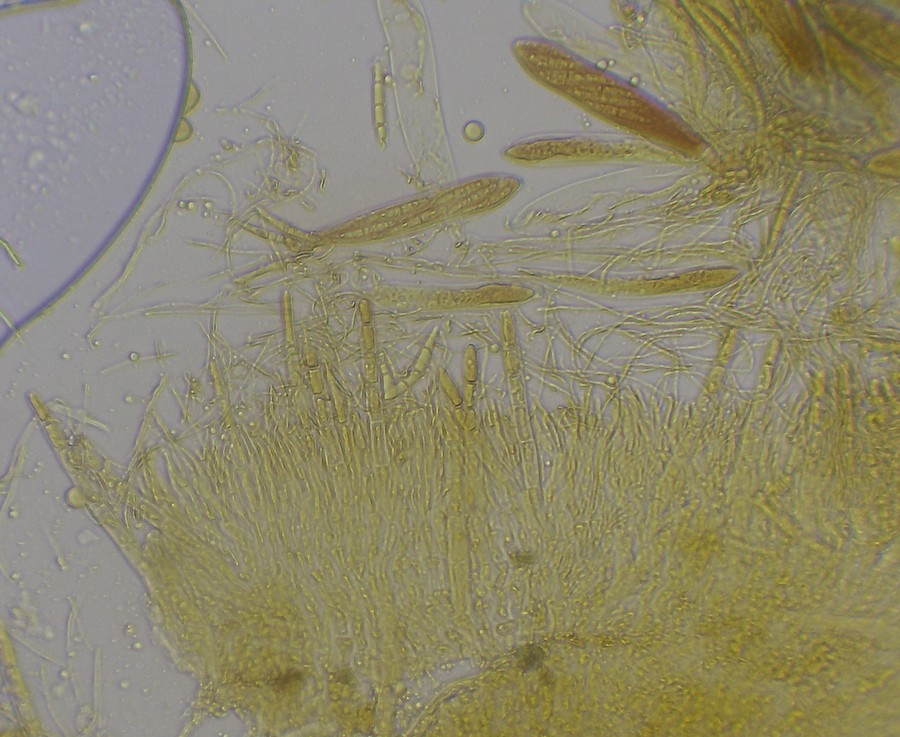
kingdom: Fungi
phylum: Ascomycota
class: Leotiomycetes
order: Helotiales
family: Arachnopezizaceae
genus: Arachnopeziza
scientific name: Arachnopeziza obtusipila
